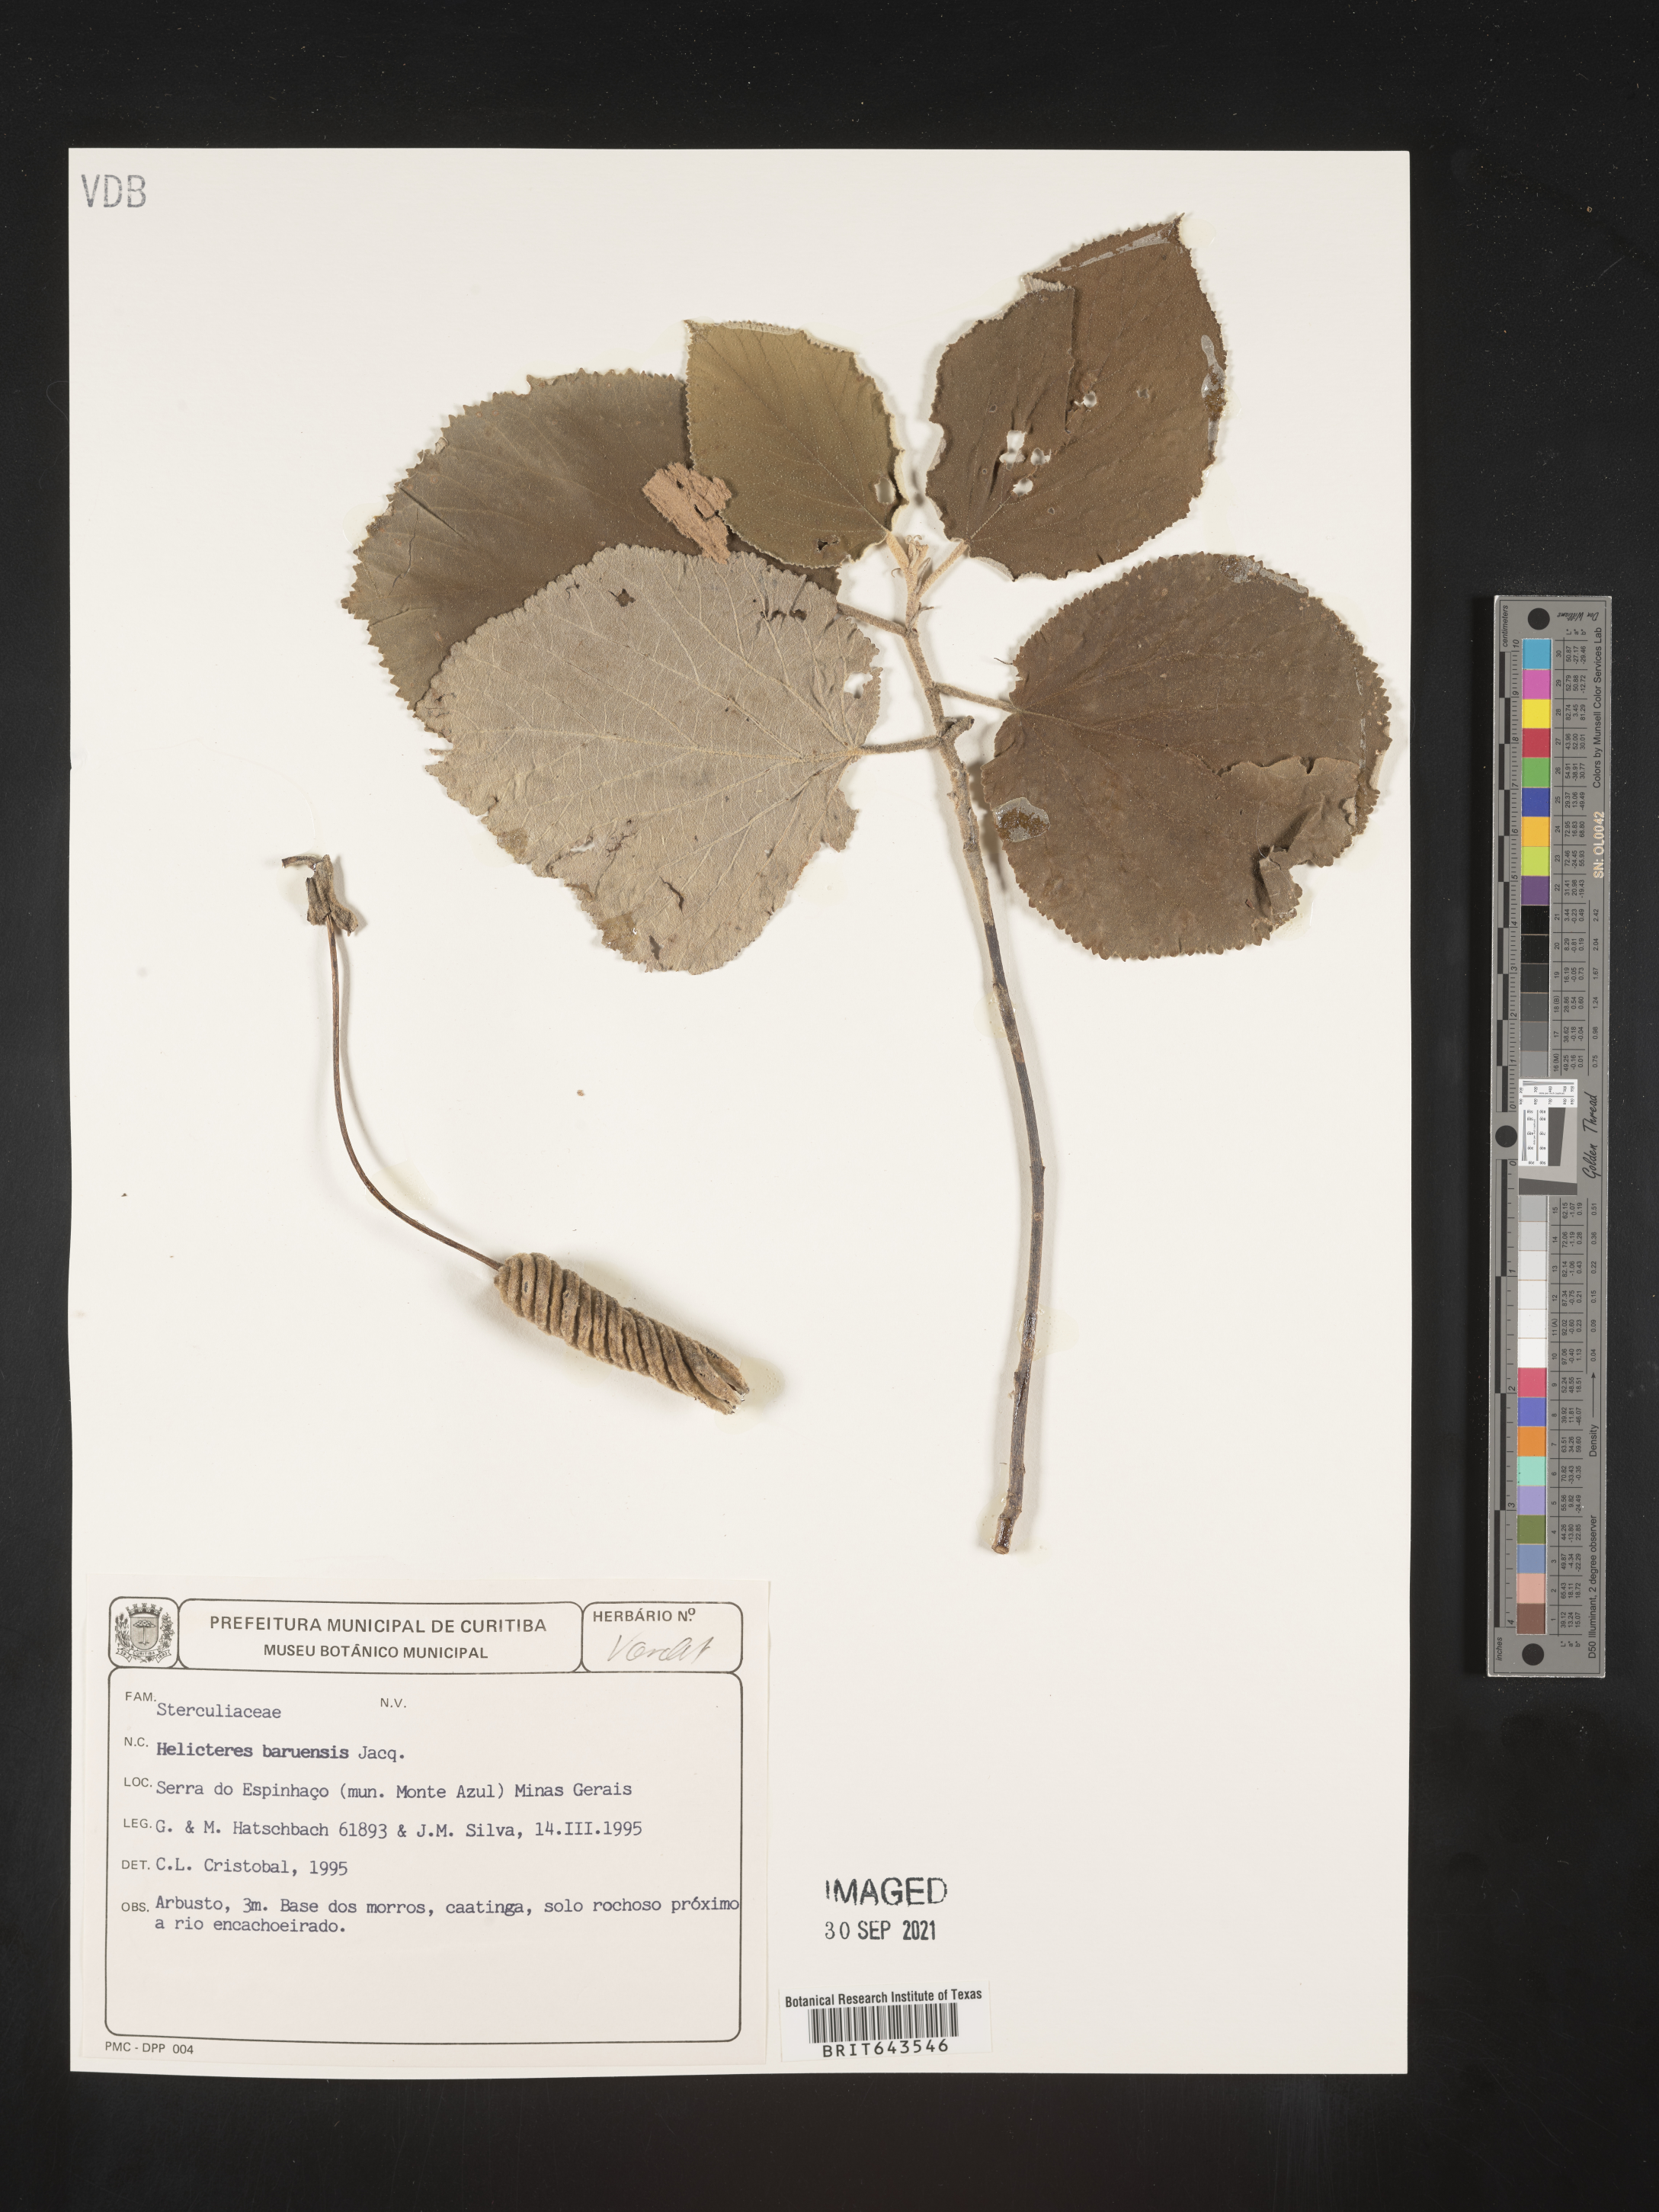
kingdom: Plantae
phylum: Tracheophyta
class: Magnoliopsida
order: Malvales
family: Malvaceae
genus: Helicteres
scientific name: Helicteres
